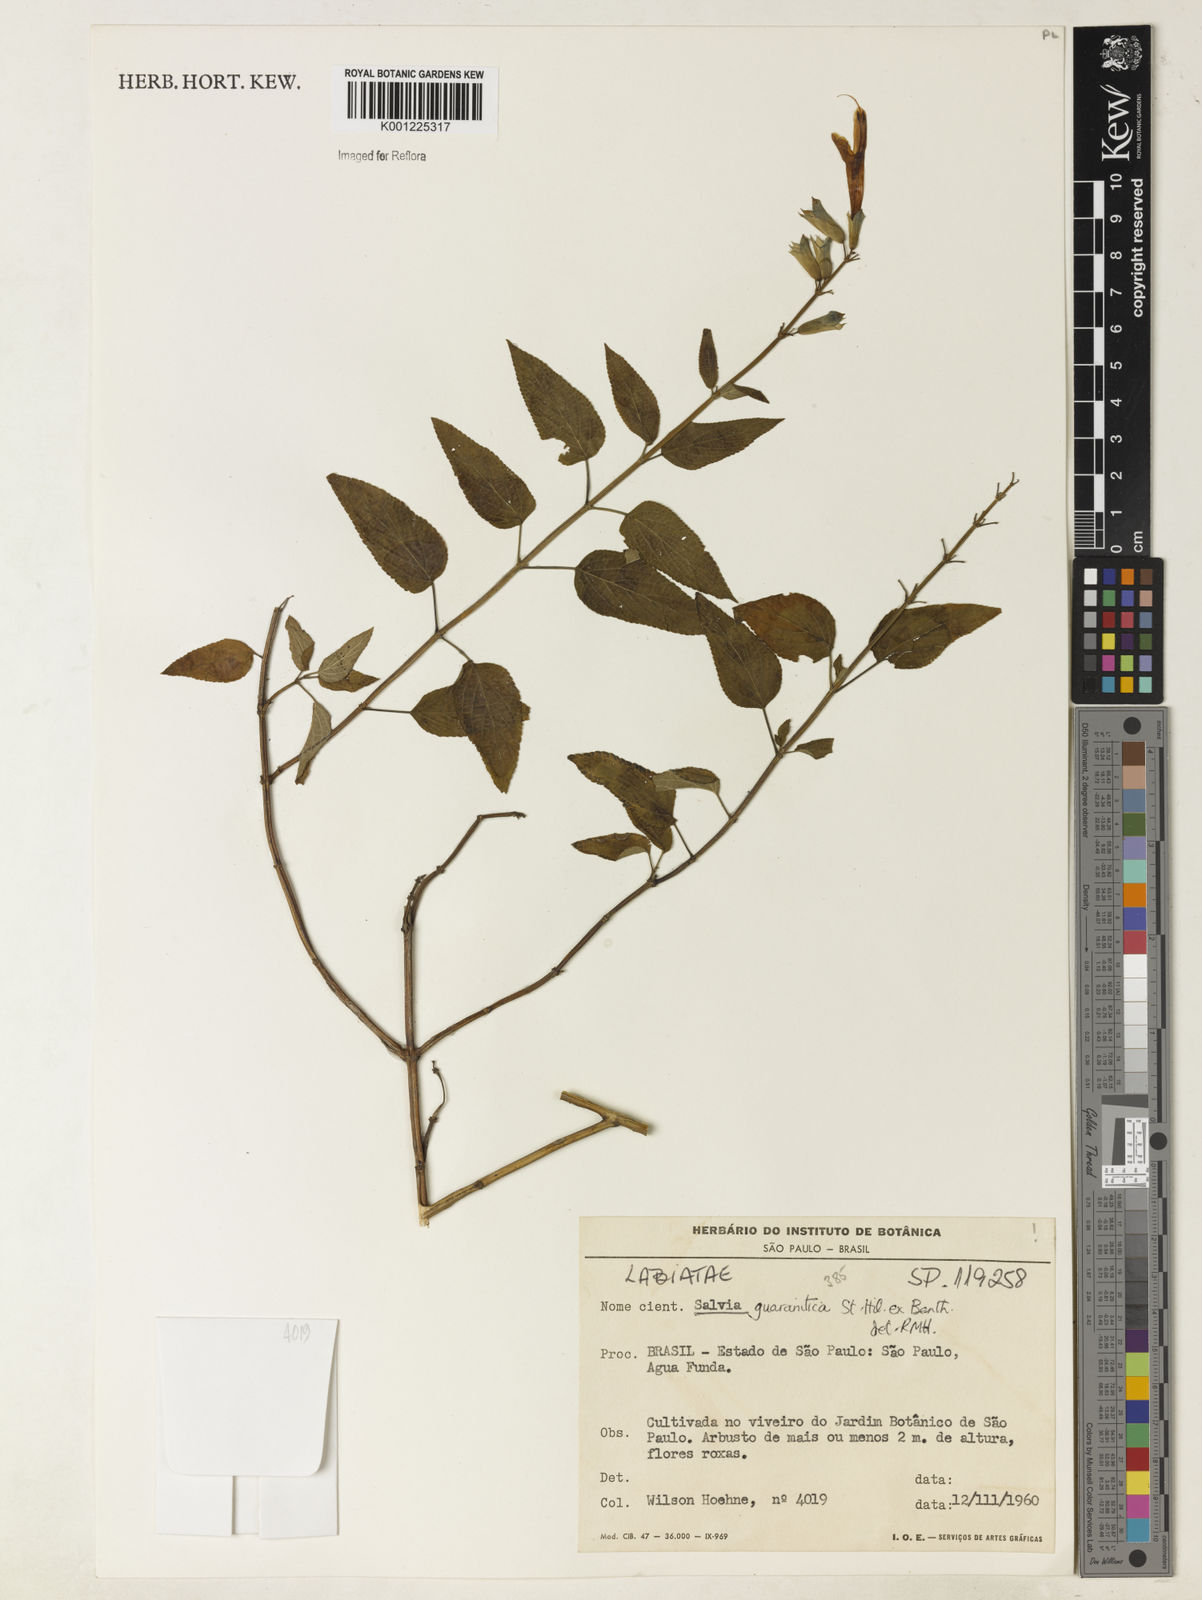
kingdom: Plantae
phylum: Tracheophyta
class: Magnoliopsida
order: Lamiales
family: Lamiaceae
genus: Salvia
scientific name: Salvia guaranitica
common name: Anise-scented sage
